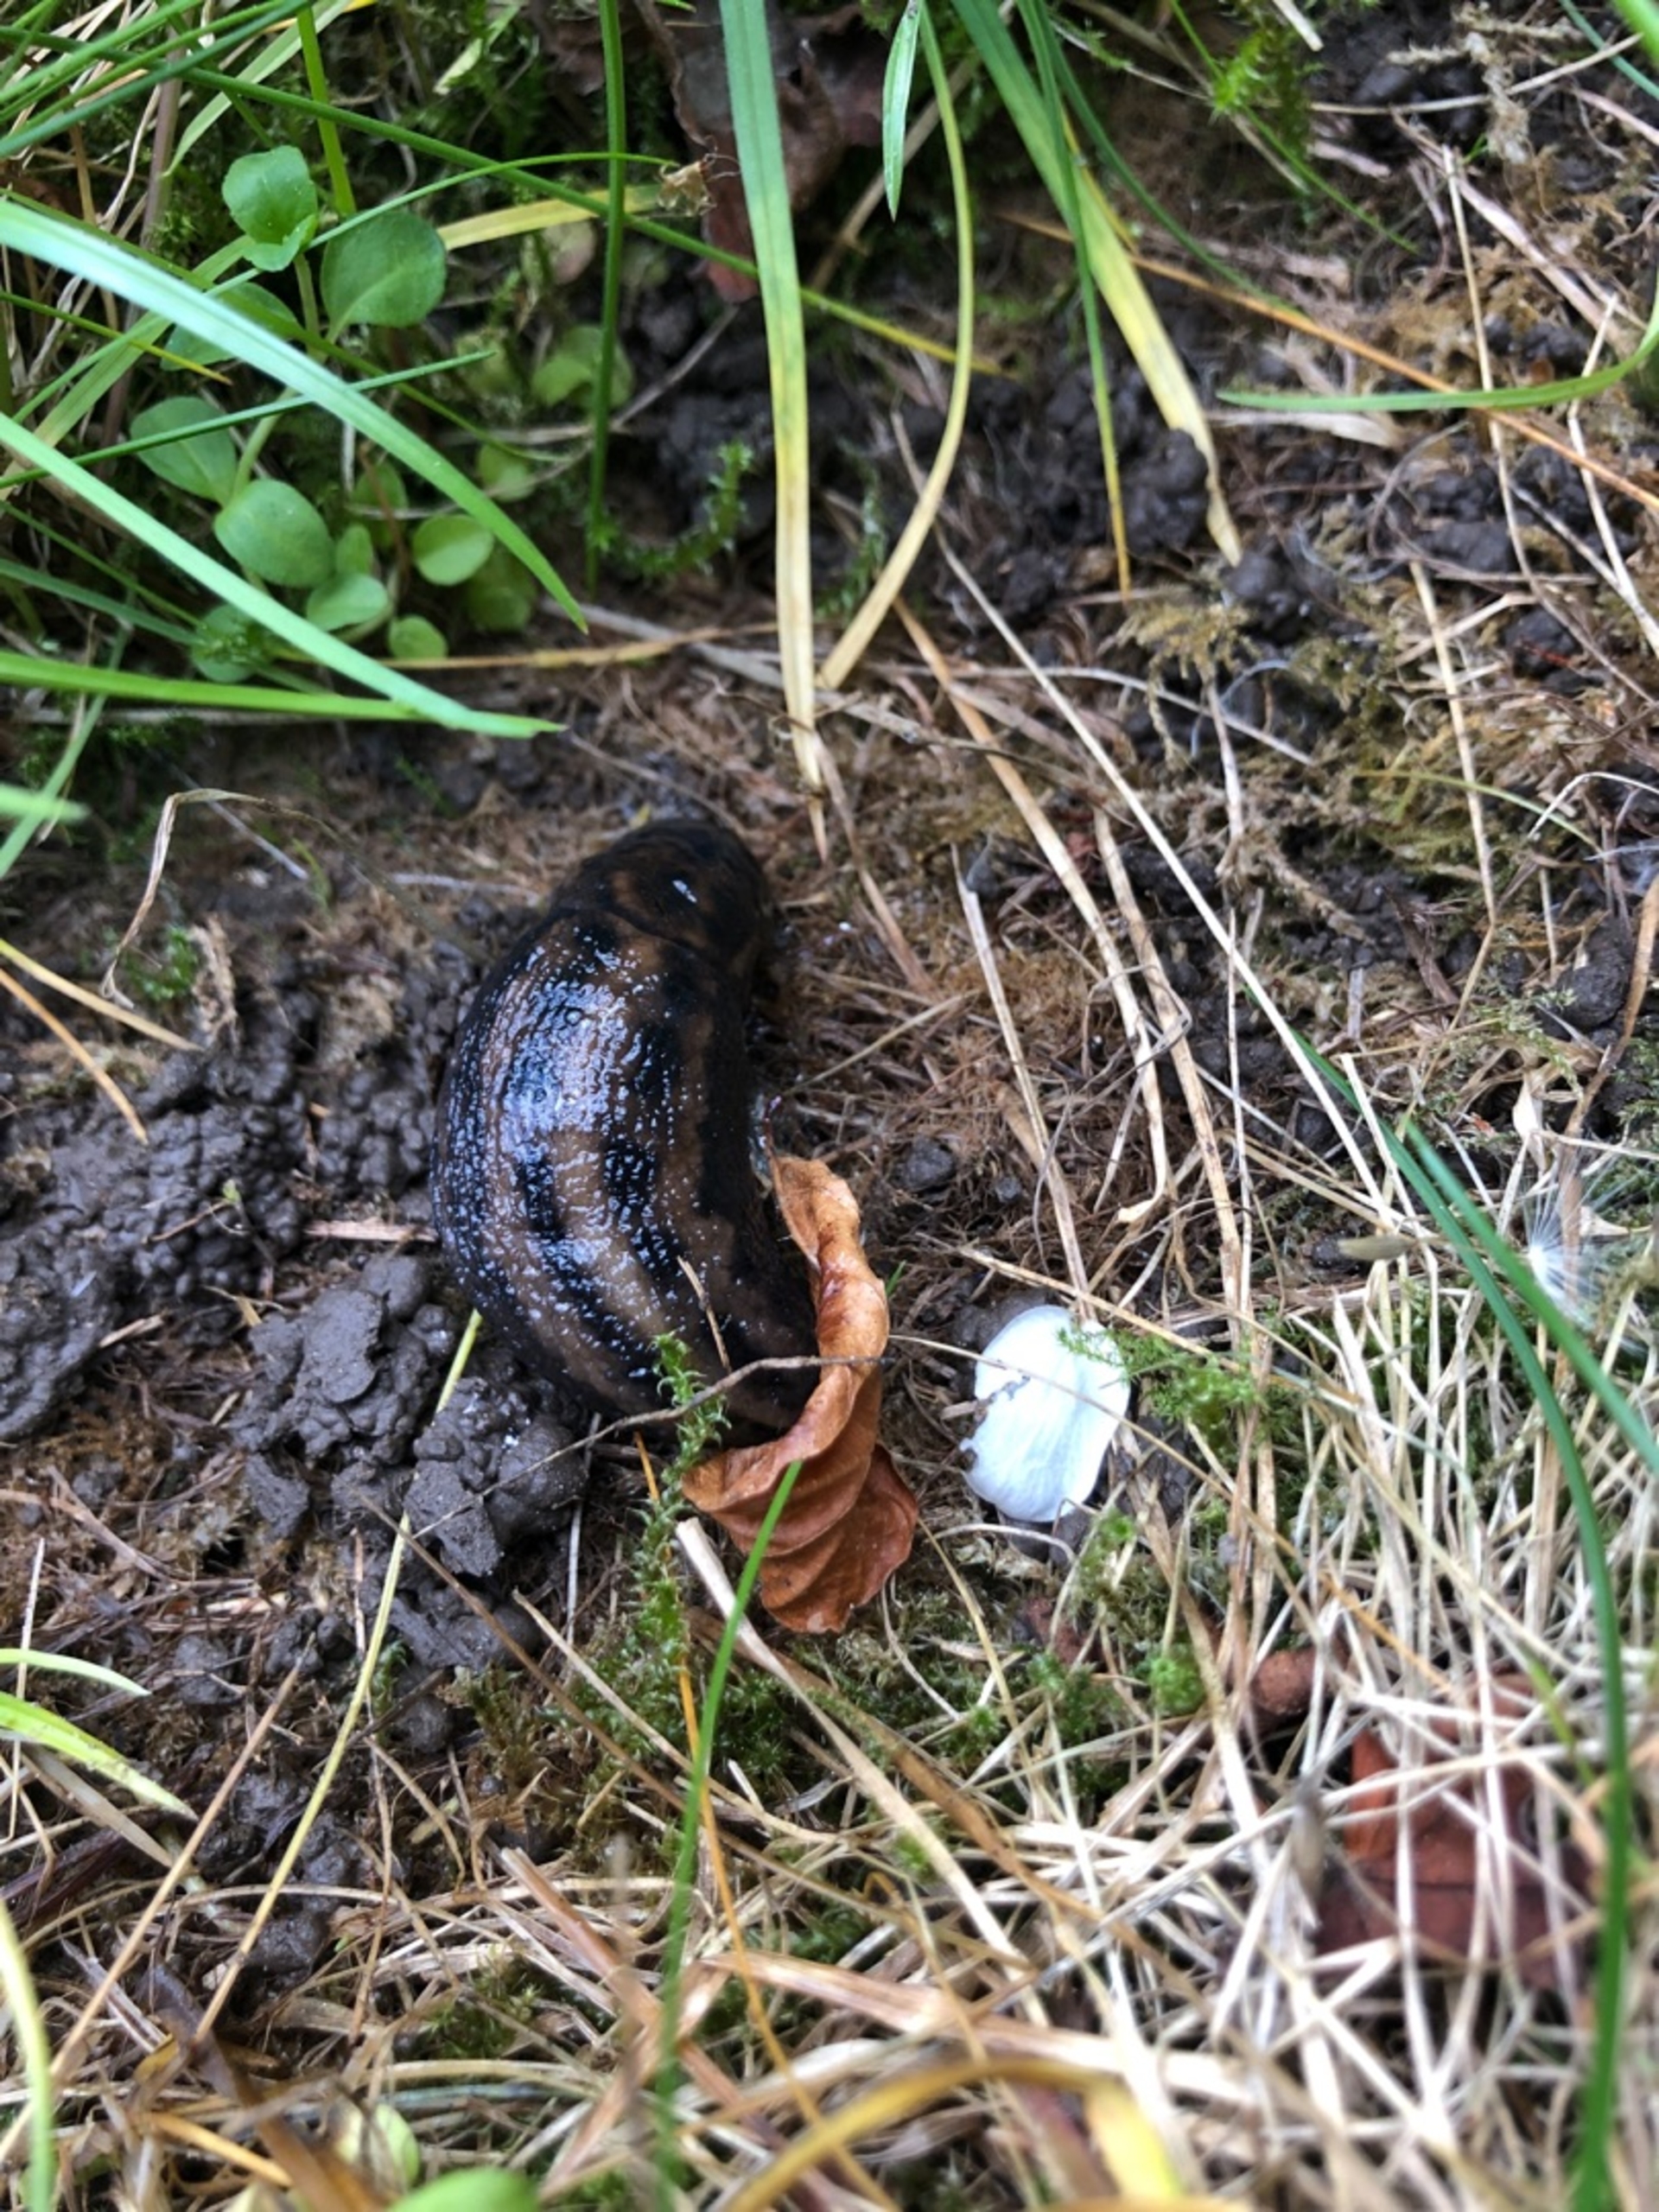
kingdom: Animalia
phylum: Mollusca
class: Gastropoda
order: Stylommatophora
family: Limacidae
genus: Limax
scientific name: Limax maximus
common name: Pantersnegl
